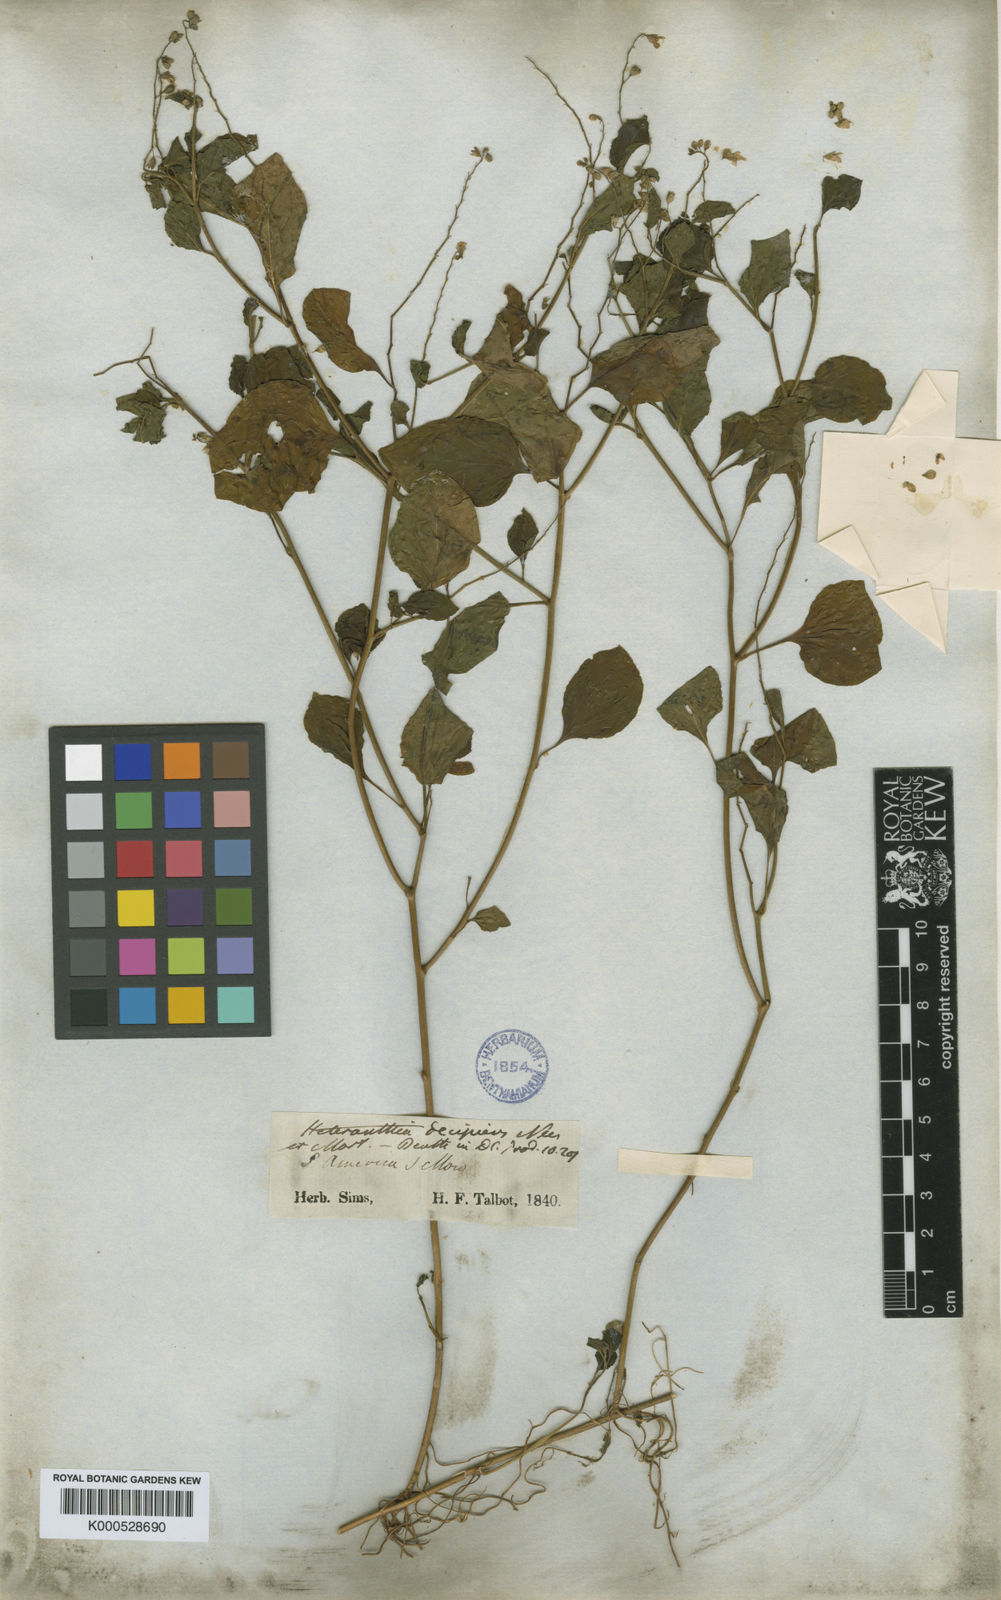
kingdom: Plantae
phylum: Tracheophyta
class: Magnoliopsida
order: Solanales
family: Solanaceae
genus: Heteranthia
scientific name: Heteranthia decipiens
